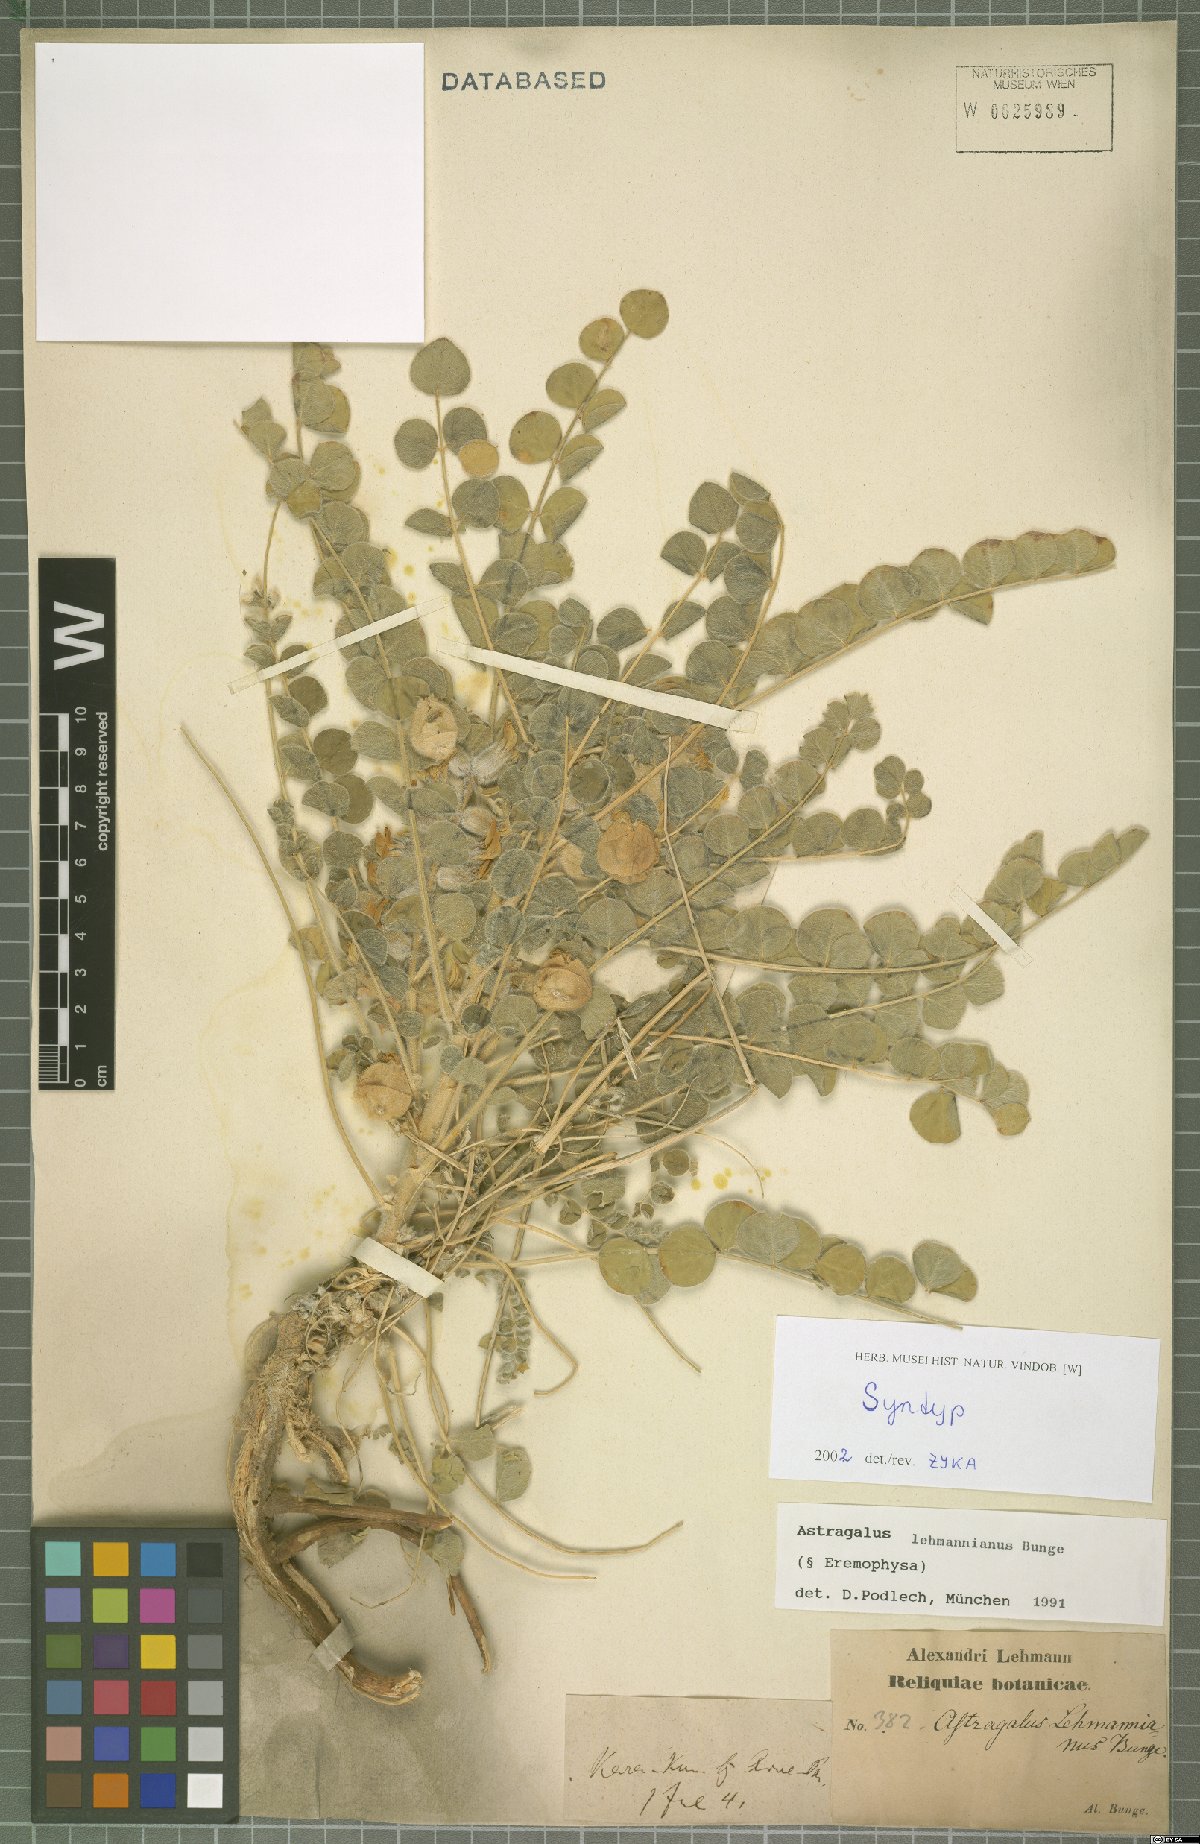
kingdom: Plantae
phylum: Tracheophyta
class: Magnoliopsida
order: Fabales
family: Fabaceae
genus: Astragalus
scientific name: Astragalus lehmannianus
